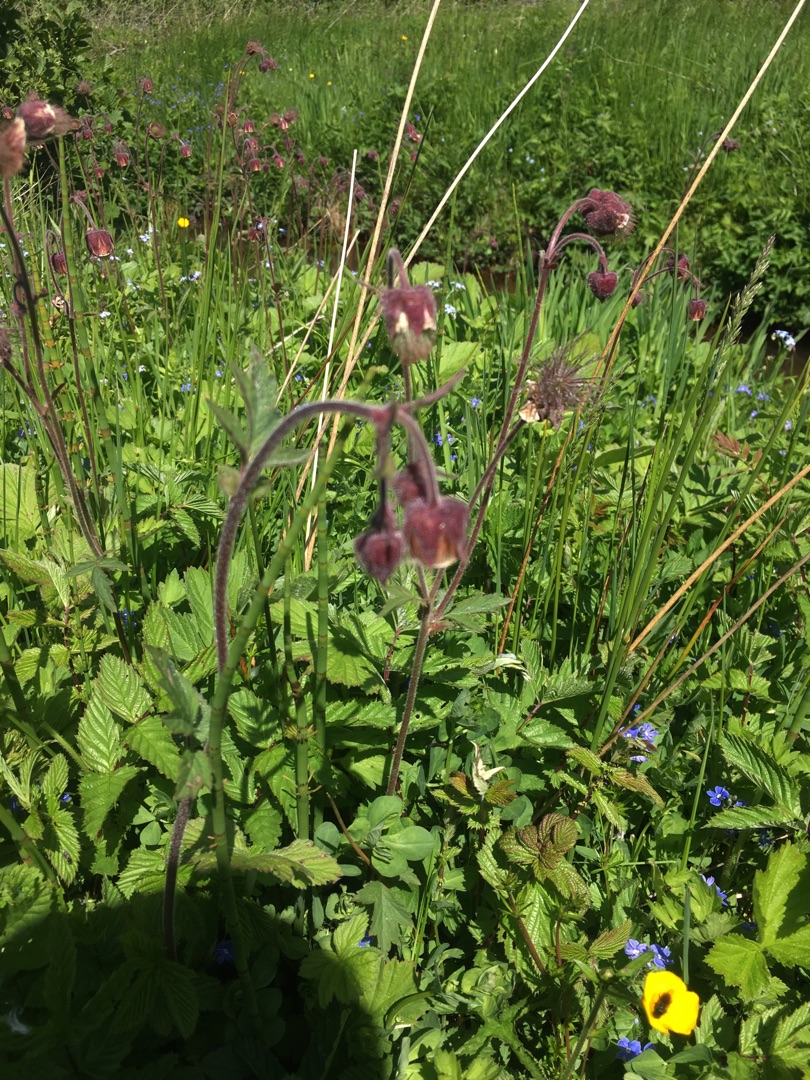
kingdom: Plantae
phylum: Tracheophyta
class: Magnoliopsida
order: Rosales
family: Rosaceae
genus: Geum
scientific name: Geum rivale
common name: Eng-nellikerod
